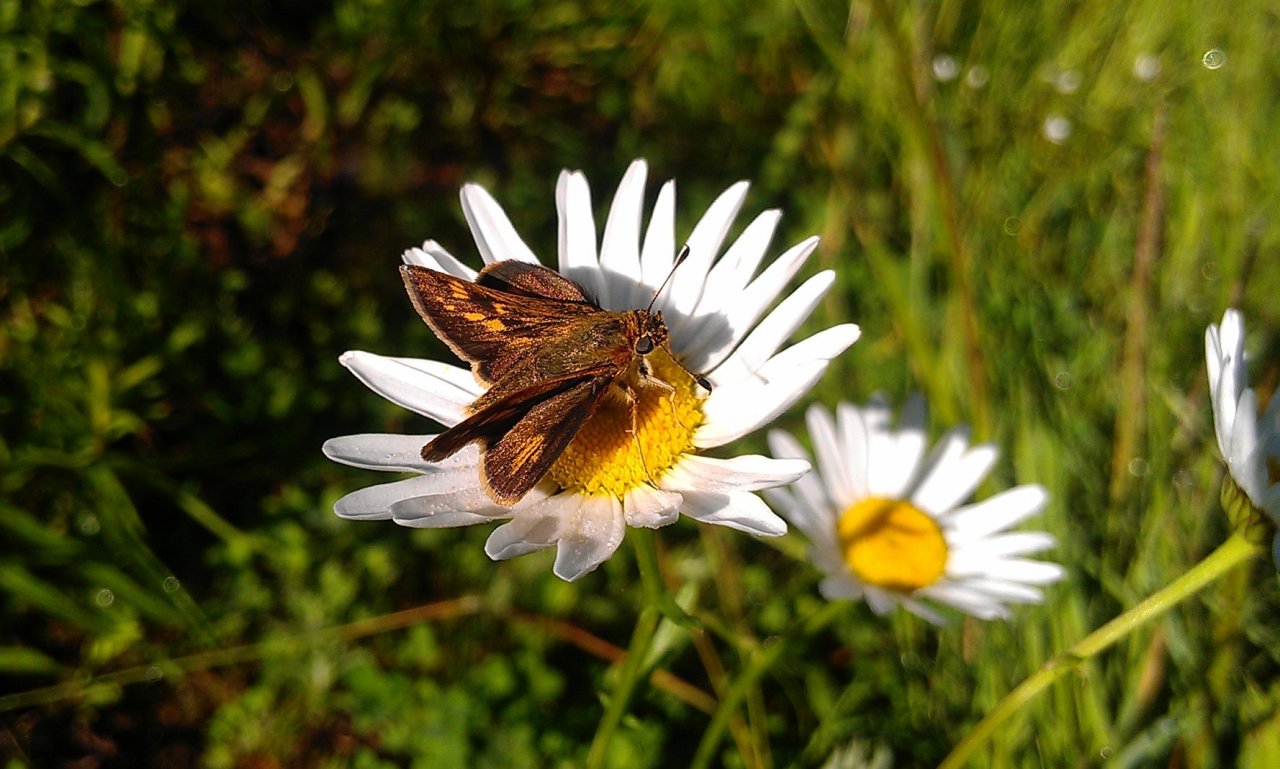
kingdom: Animalia
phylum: Arthropoda
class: Insecta
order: Lepidoptera
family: Hesperiidae
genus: Polites
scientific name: Polites coras
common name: Peck's Skipper
